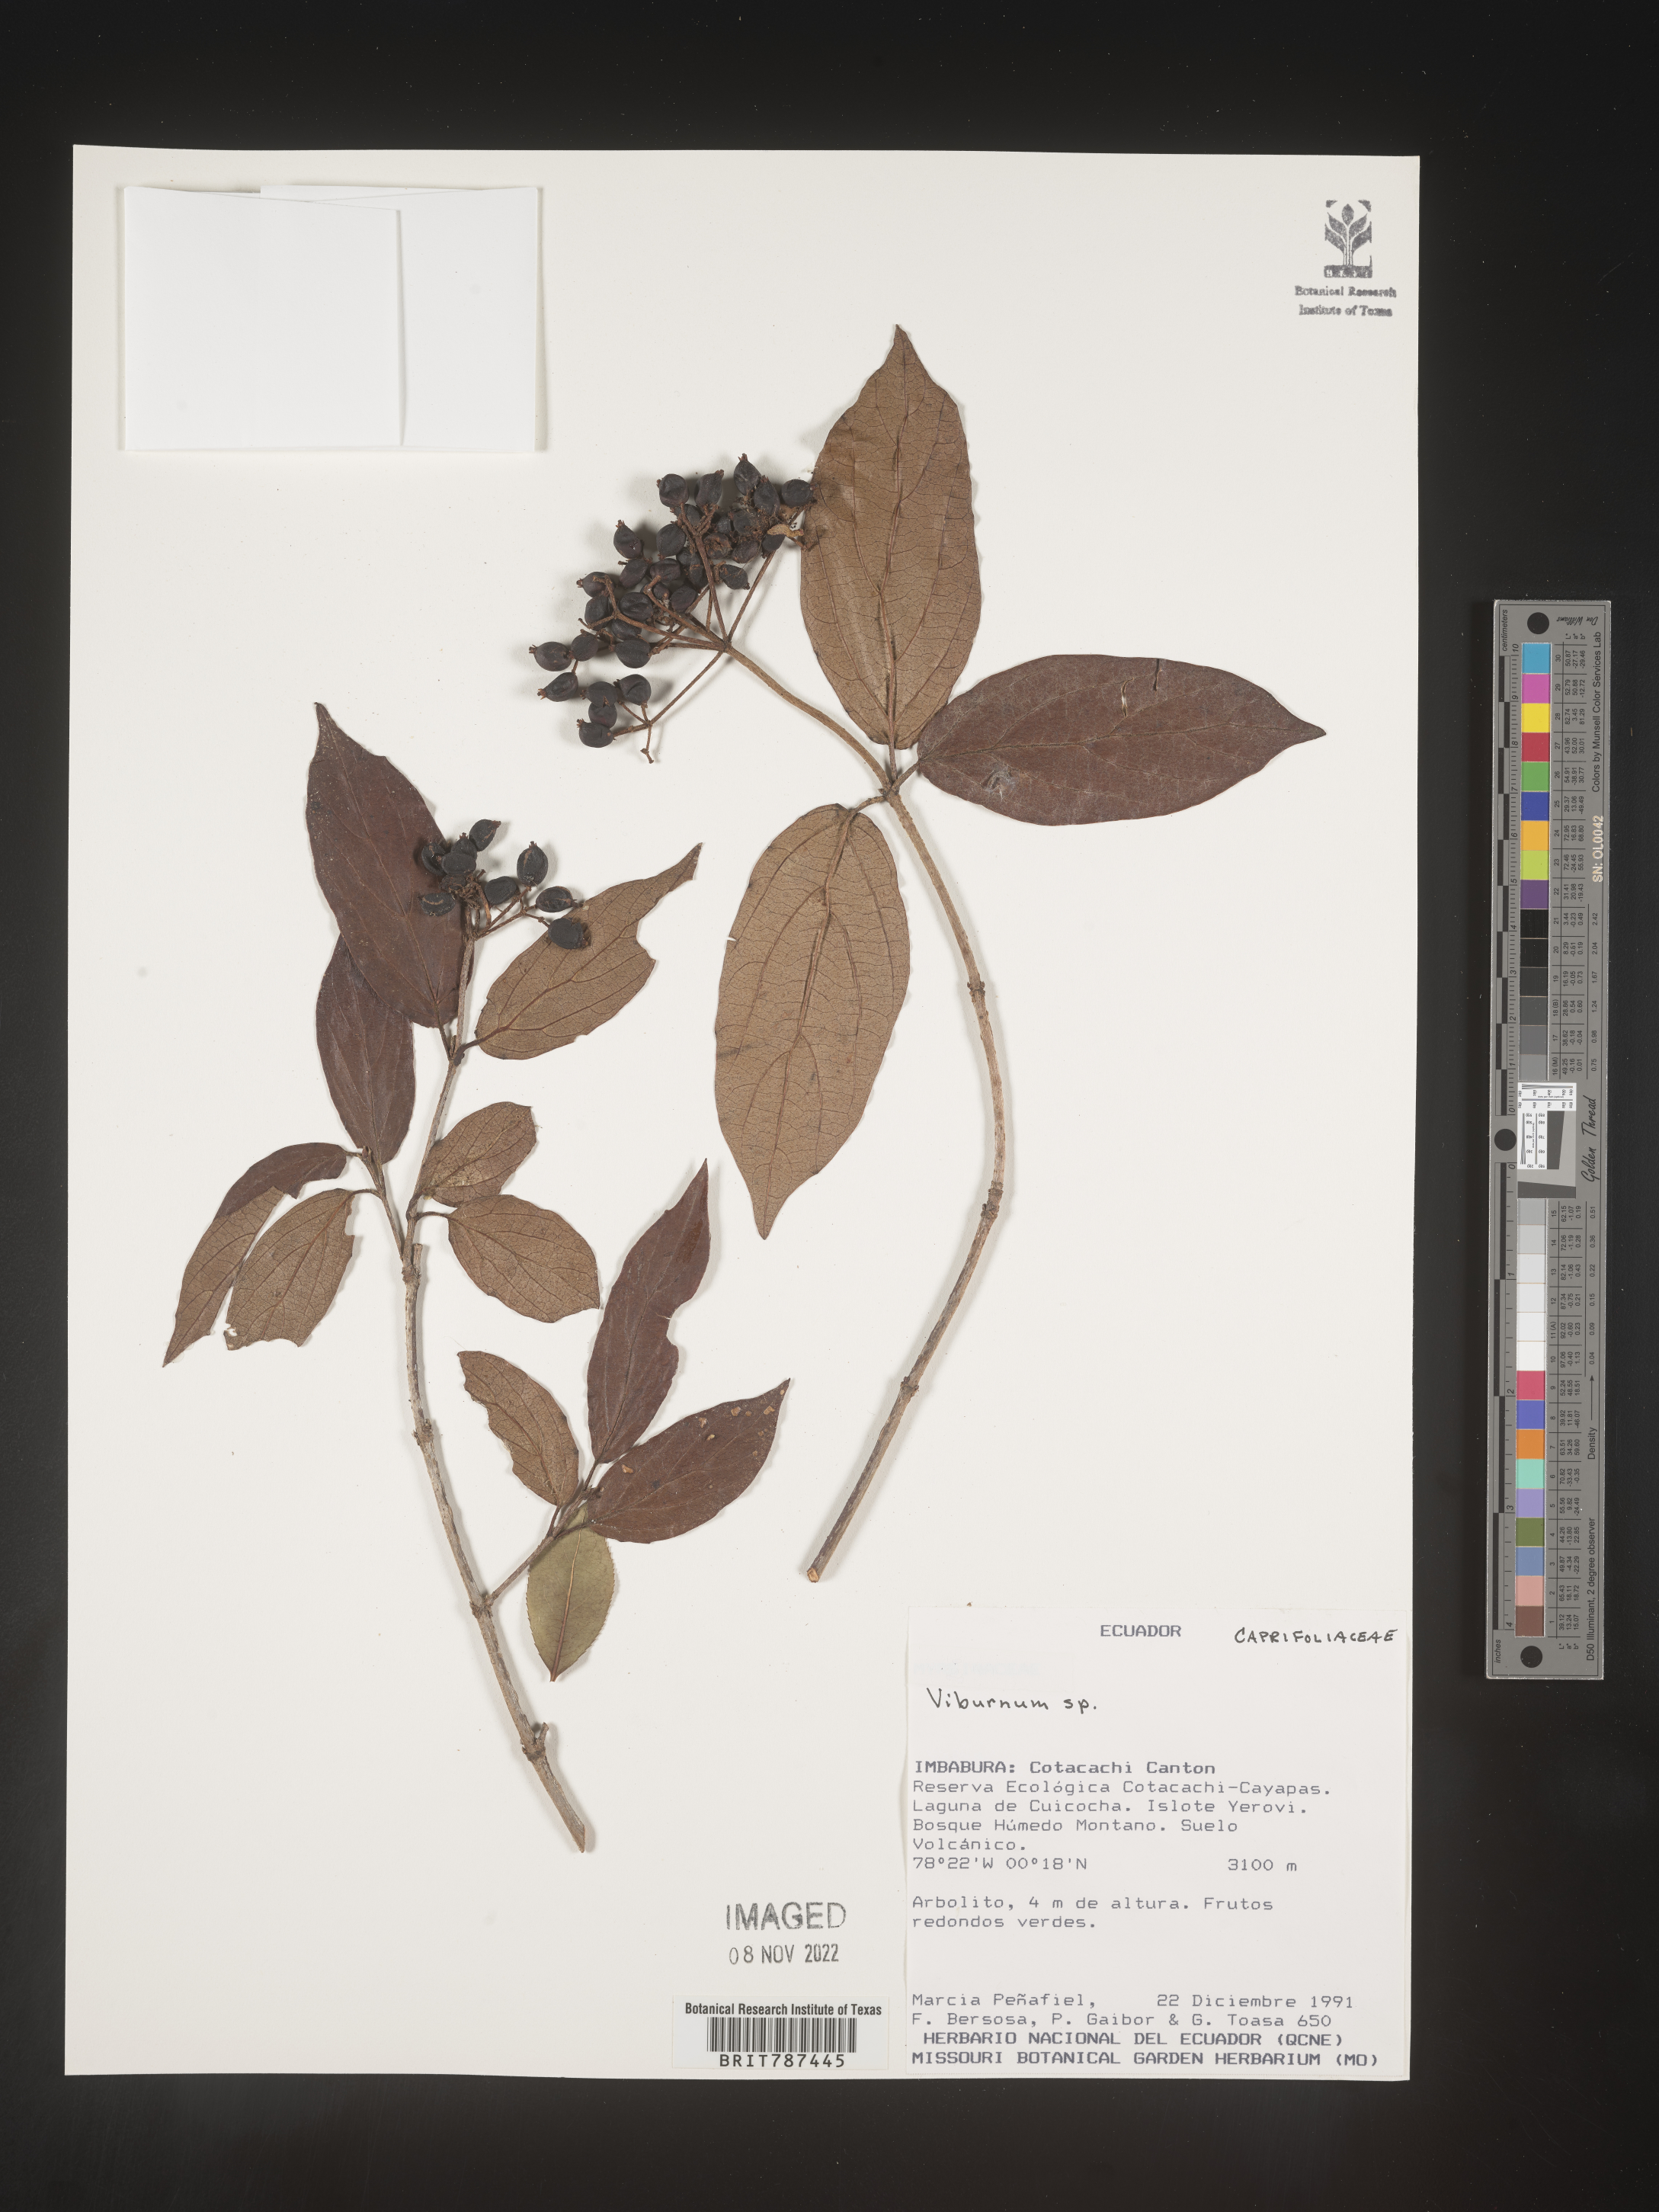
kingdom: Plantae
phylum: Tracheophyta
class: Magnoliopsida
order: Dipsacales
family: Viburnaceae
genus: Viburnum
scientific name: Viburnum
